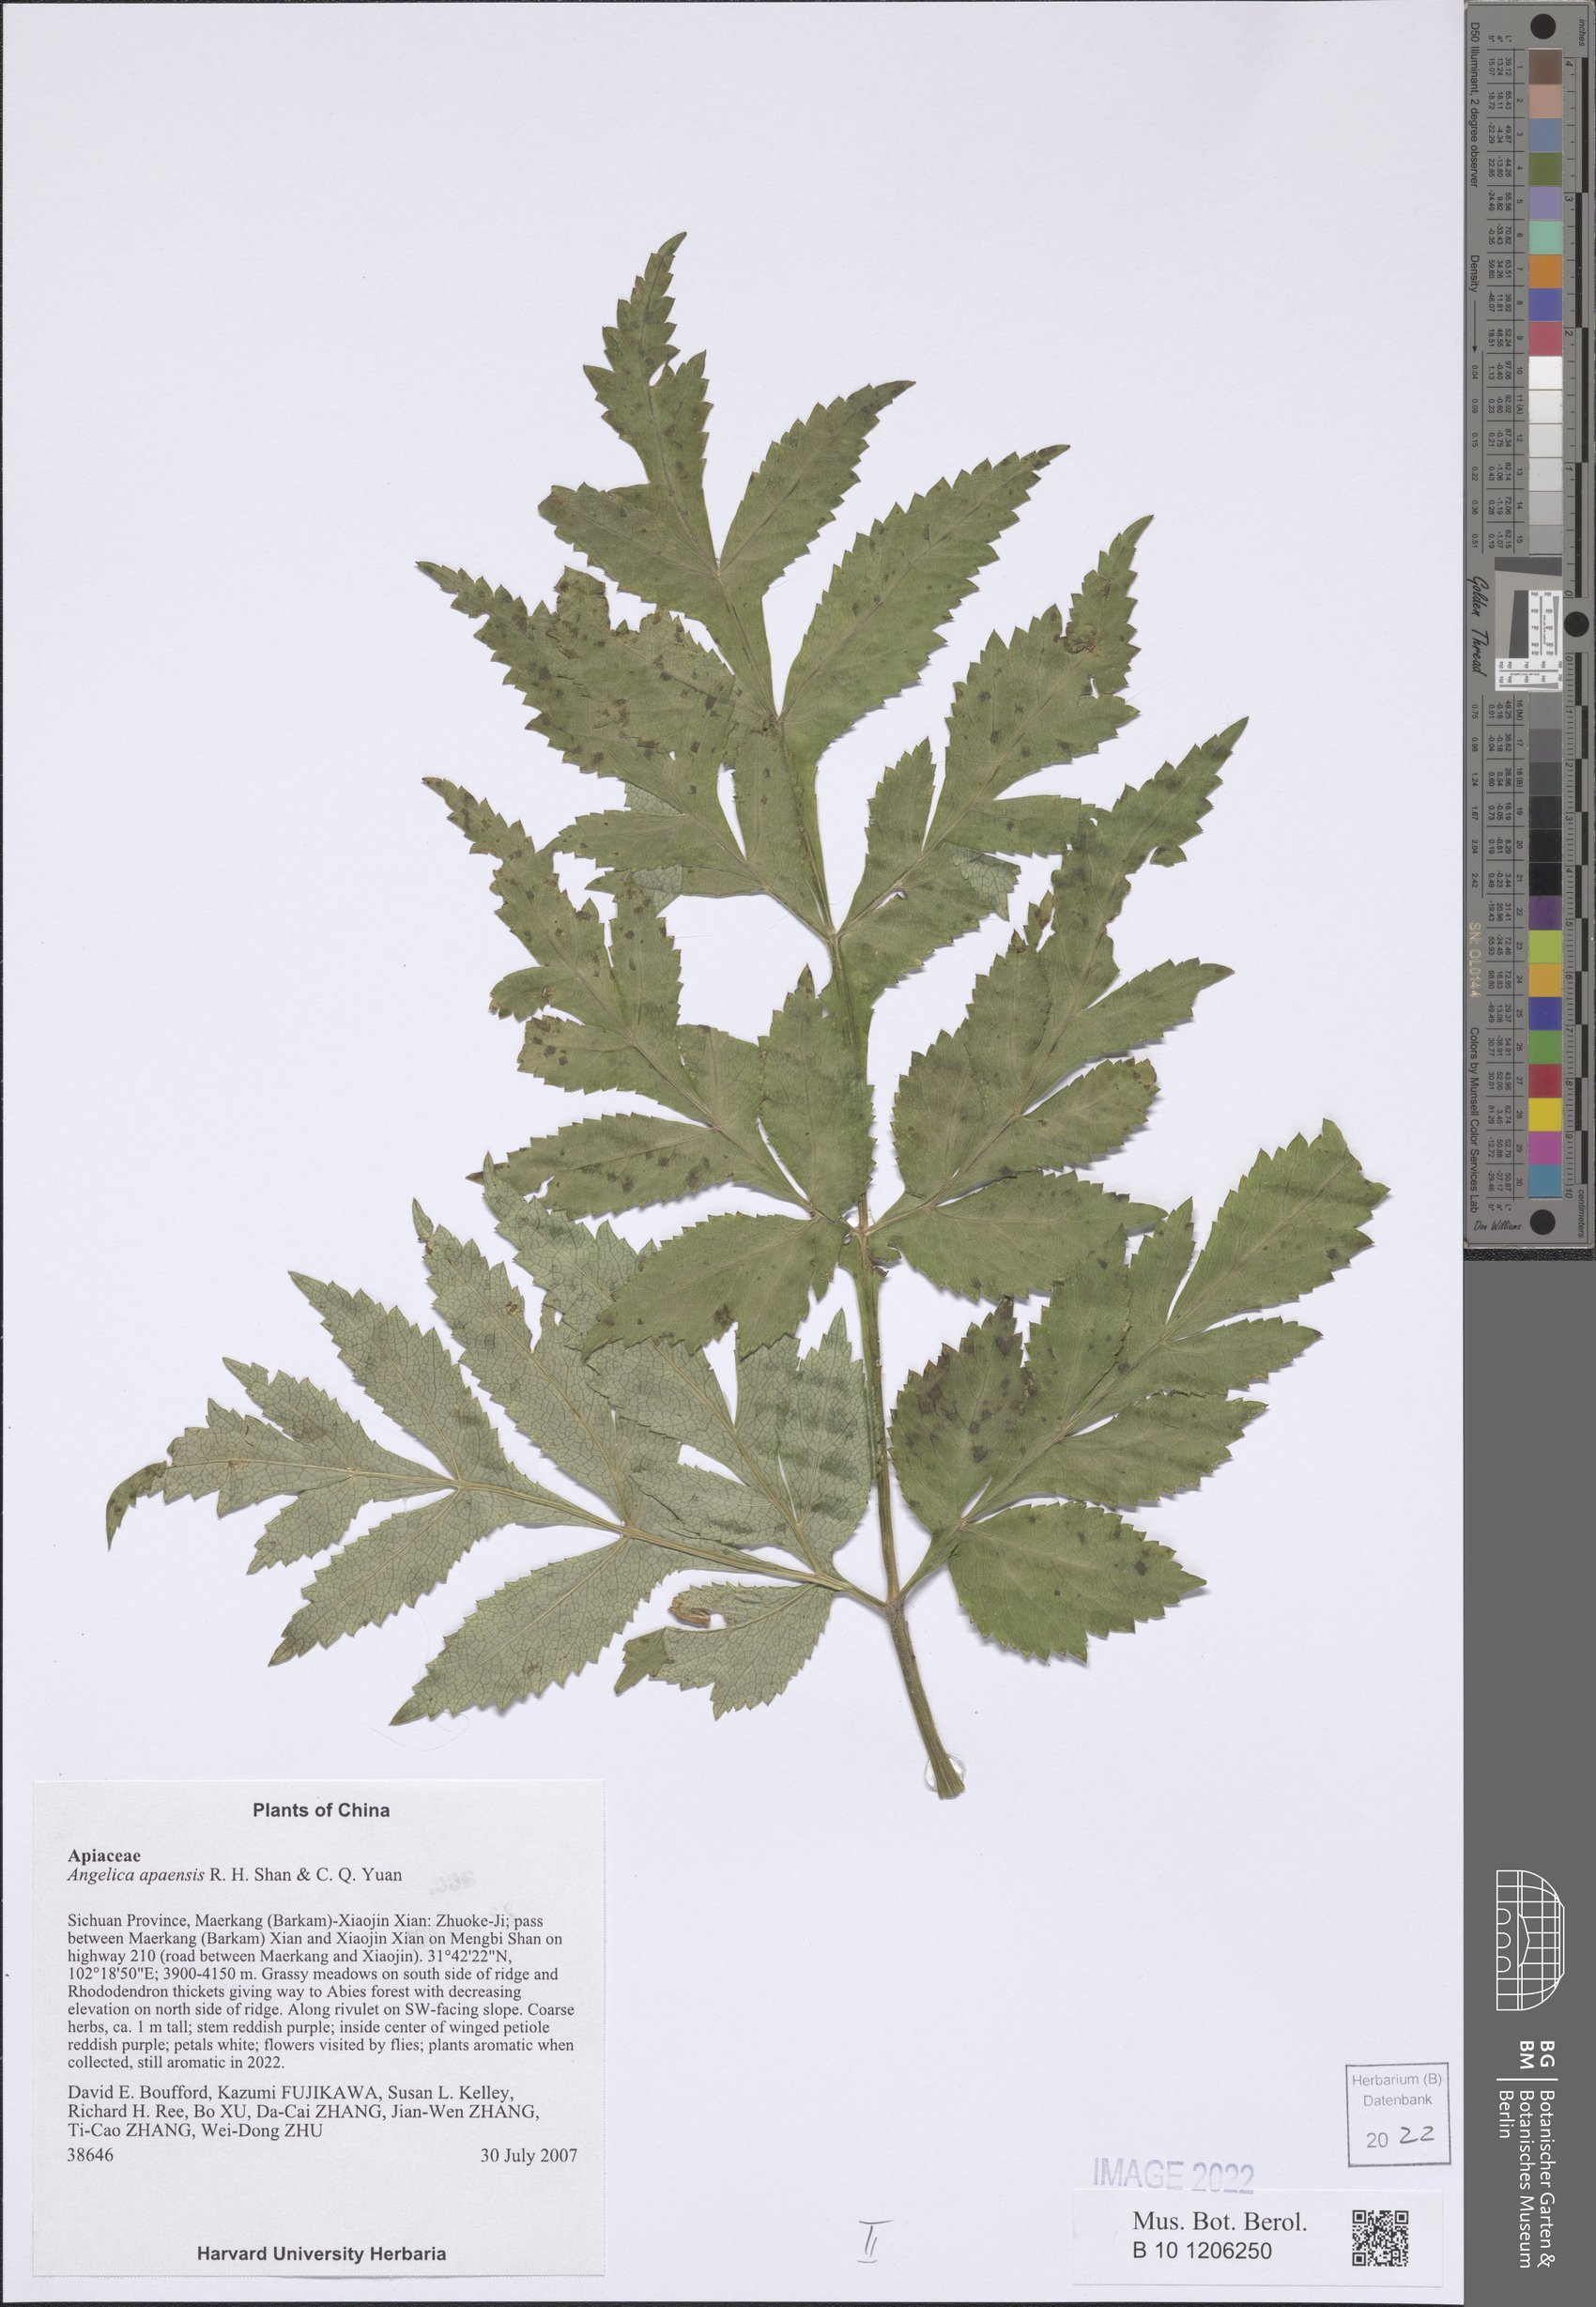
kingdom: Plantae
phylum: Tracheophyta
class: Magnoliopsida
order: Apiales
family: Apiaceae
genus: Angelica
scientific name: Angelica apaensis
